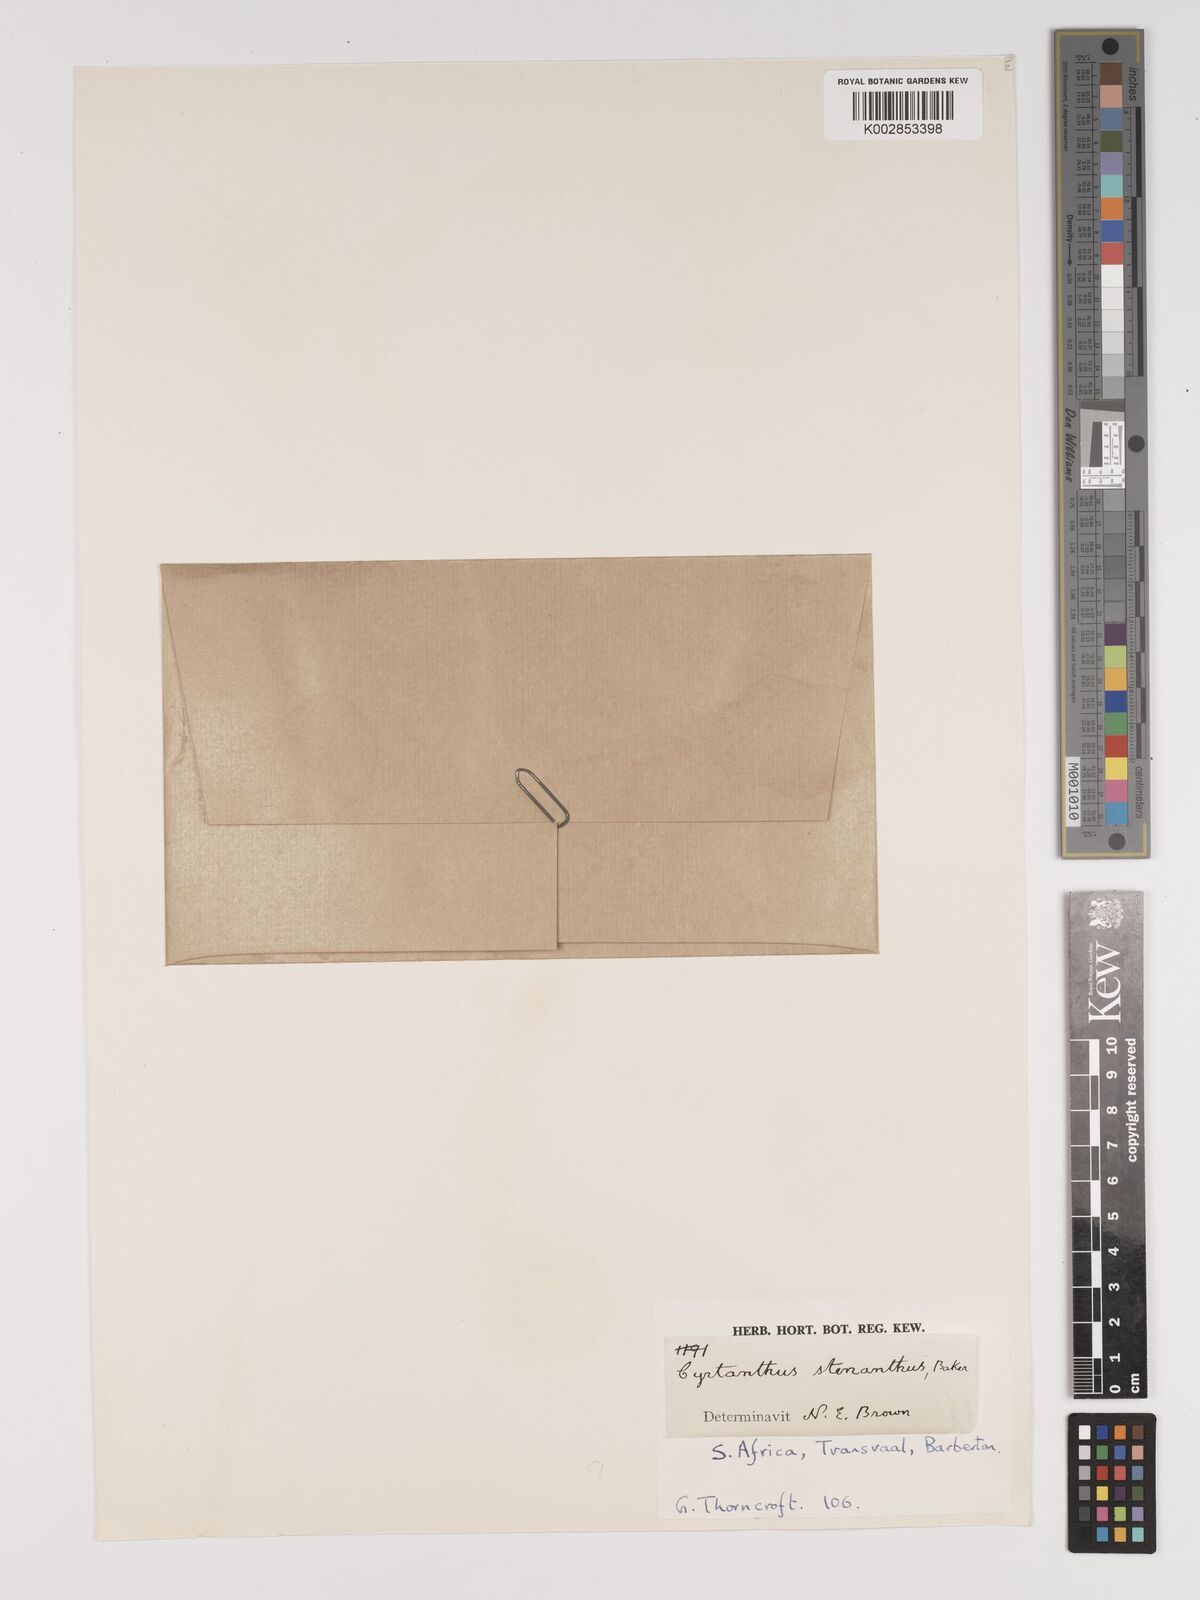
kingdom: Plantae
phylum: Tracheophyta
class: Liliopsida
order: Asparagales
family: Amaryllidaceae
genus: Cyrtanthus
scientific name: Cyrtanthus stenanthus
